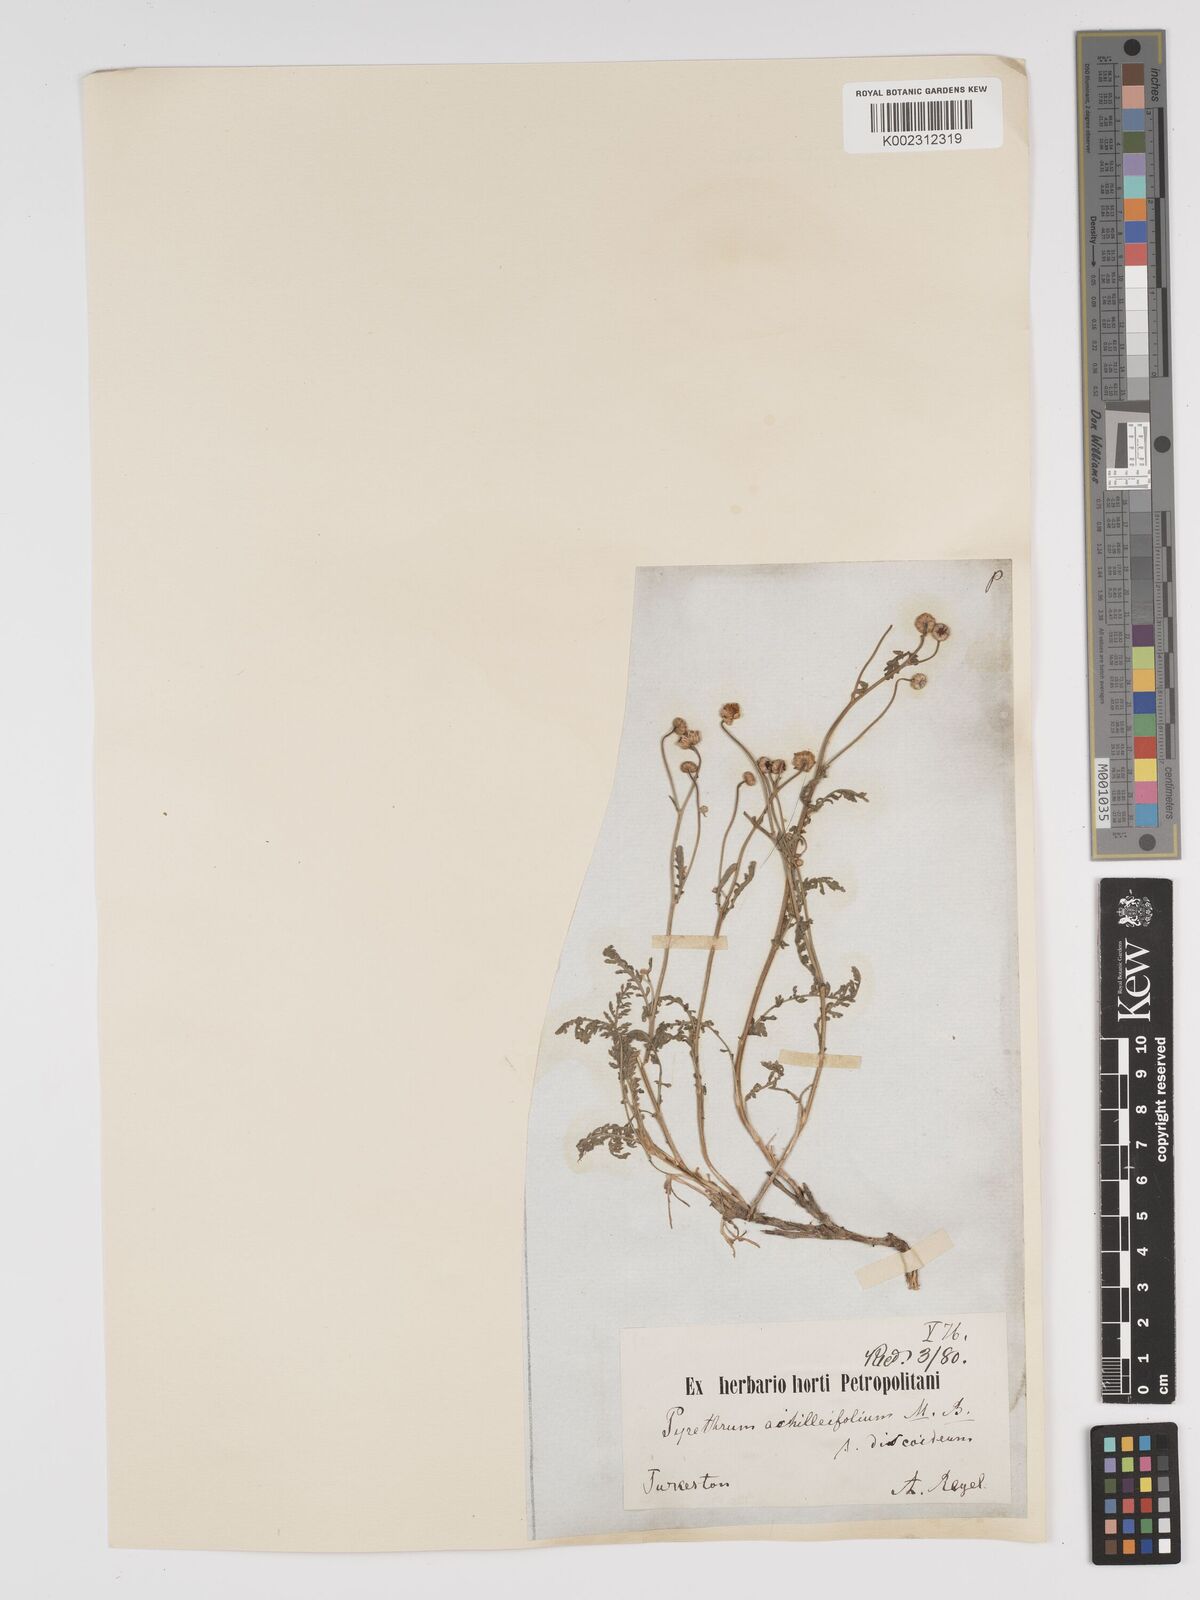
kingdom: Plantae
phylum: Tracheophyta
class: Magnoliopsida
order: Asterales
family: Asteraceae
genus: Tanacetum
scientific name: Tanacetum achilleifolium
